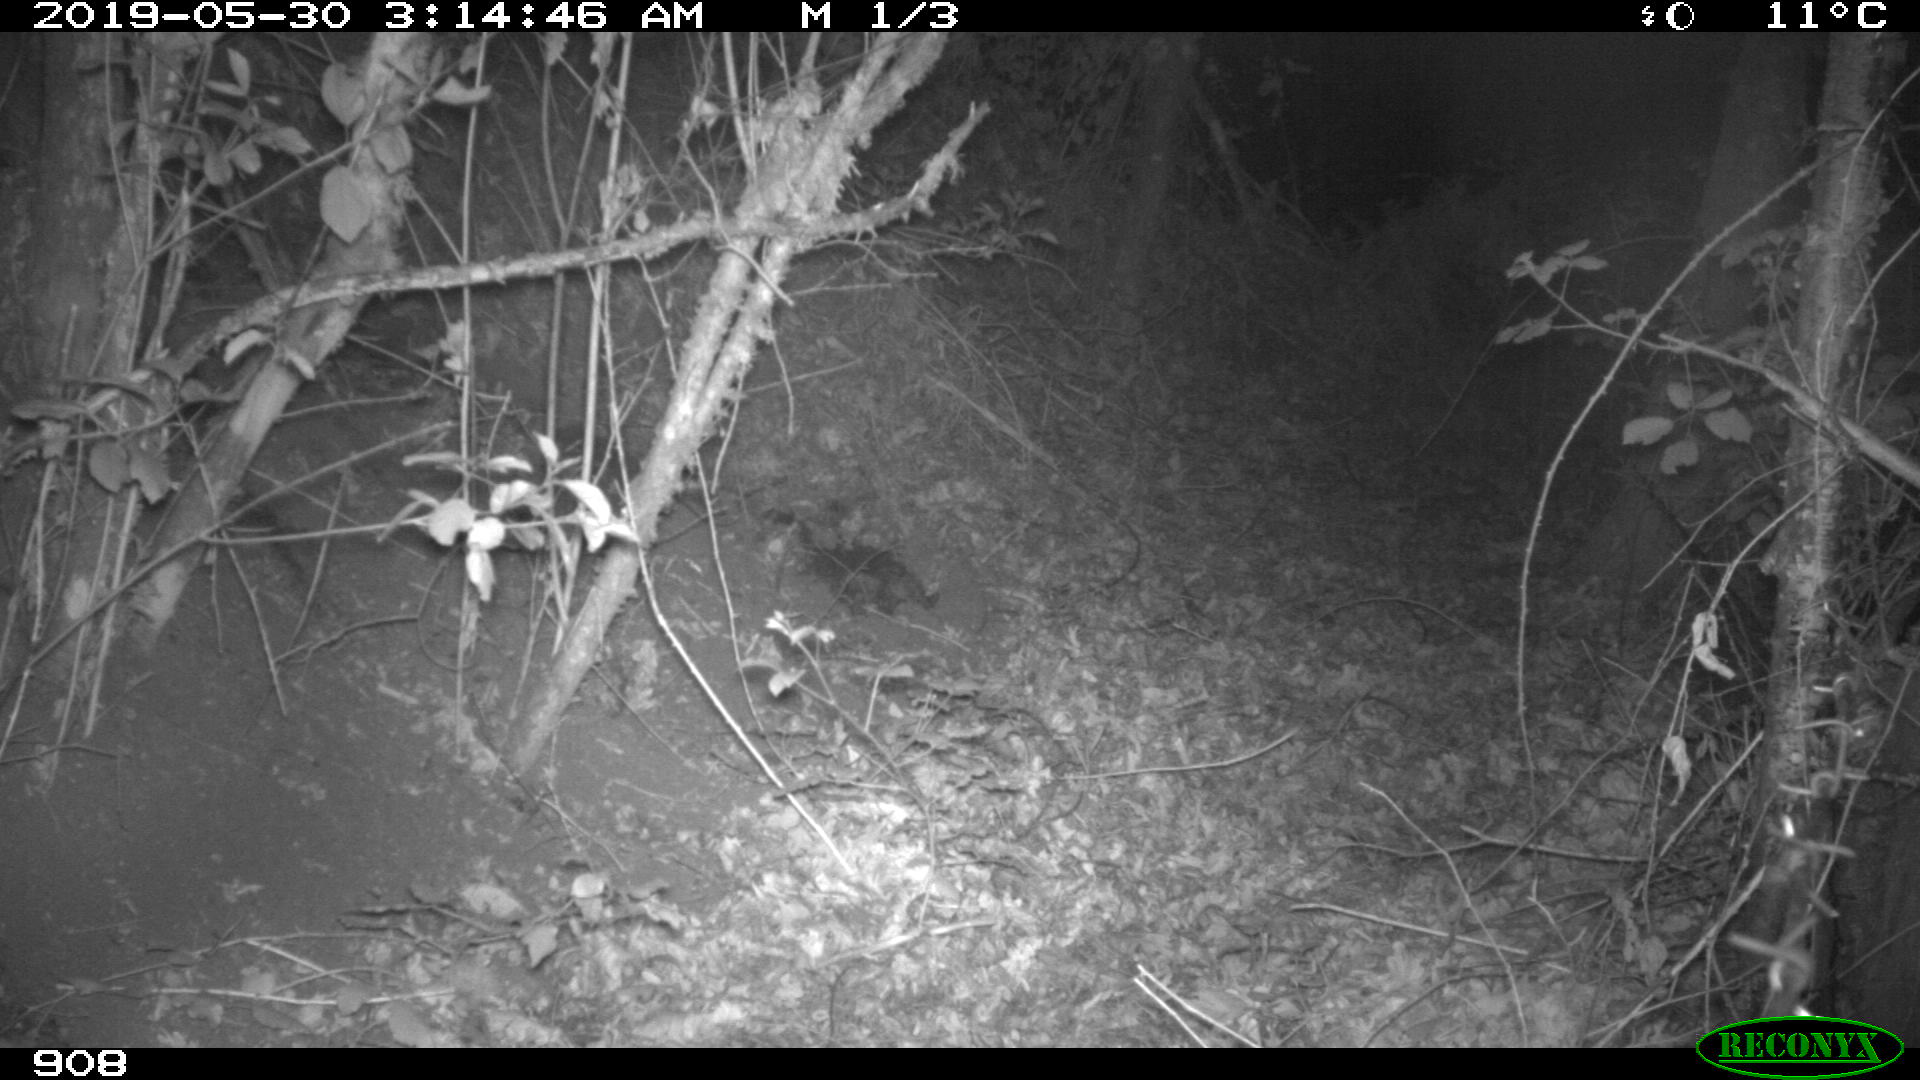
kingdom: Animalia
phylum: Chordata
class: Mammalia
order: Artiodactyla
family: Suidae
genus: Sus
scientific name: Sus scrofa
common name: Wild boar
